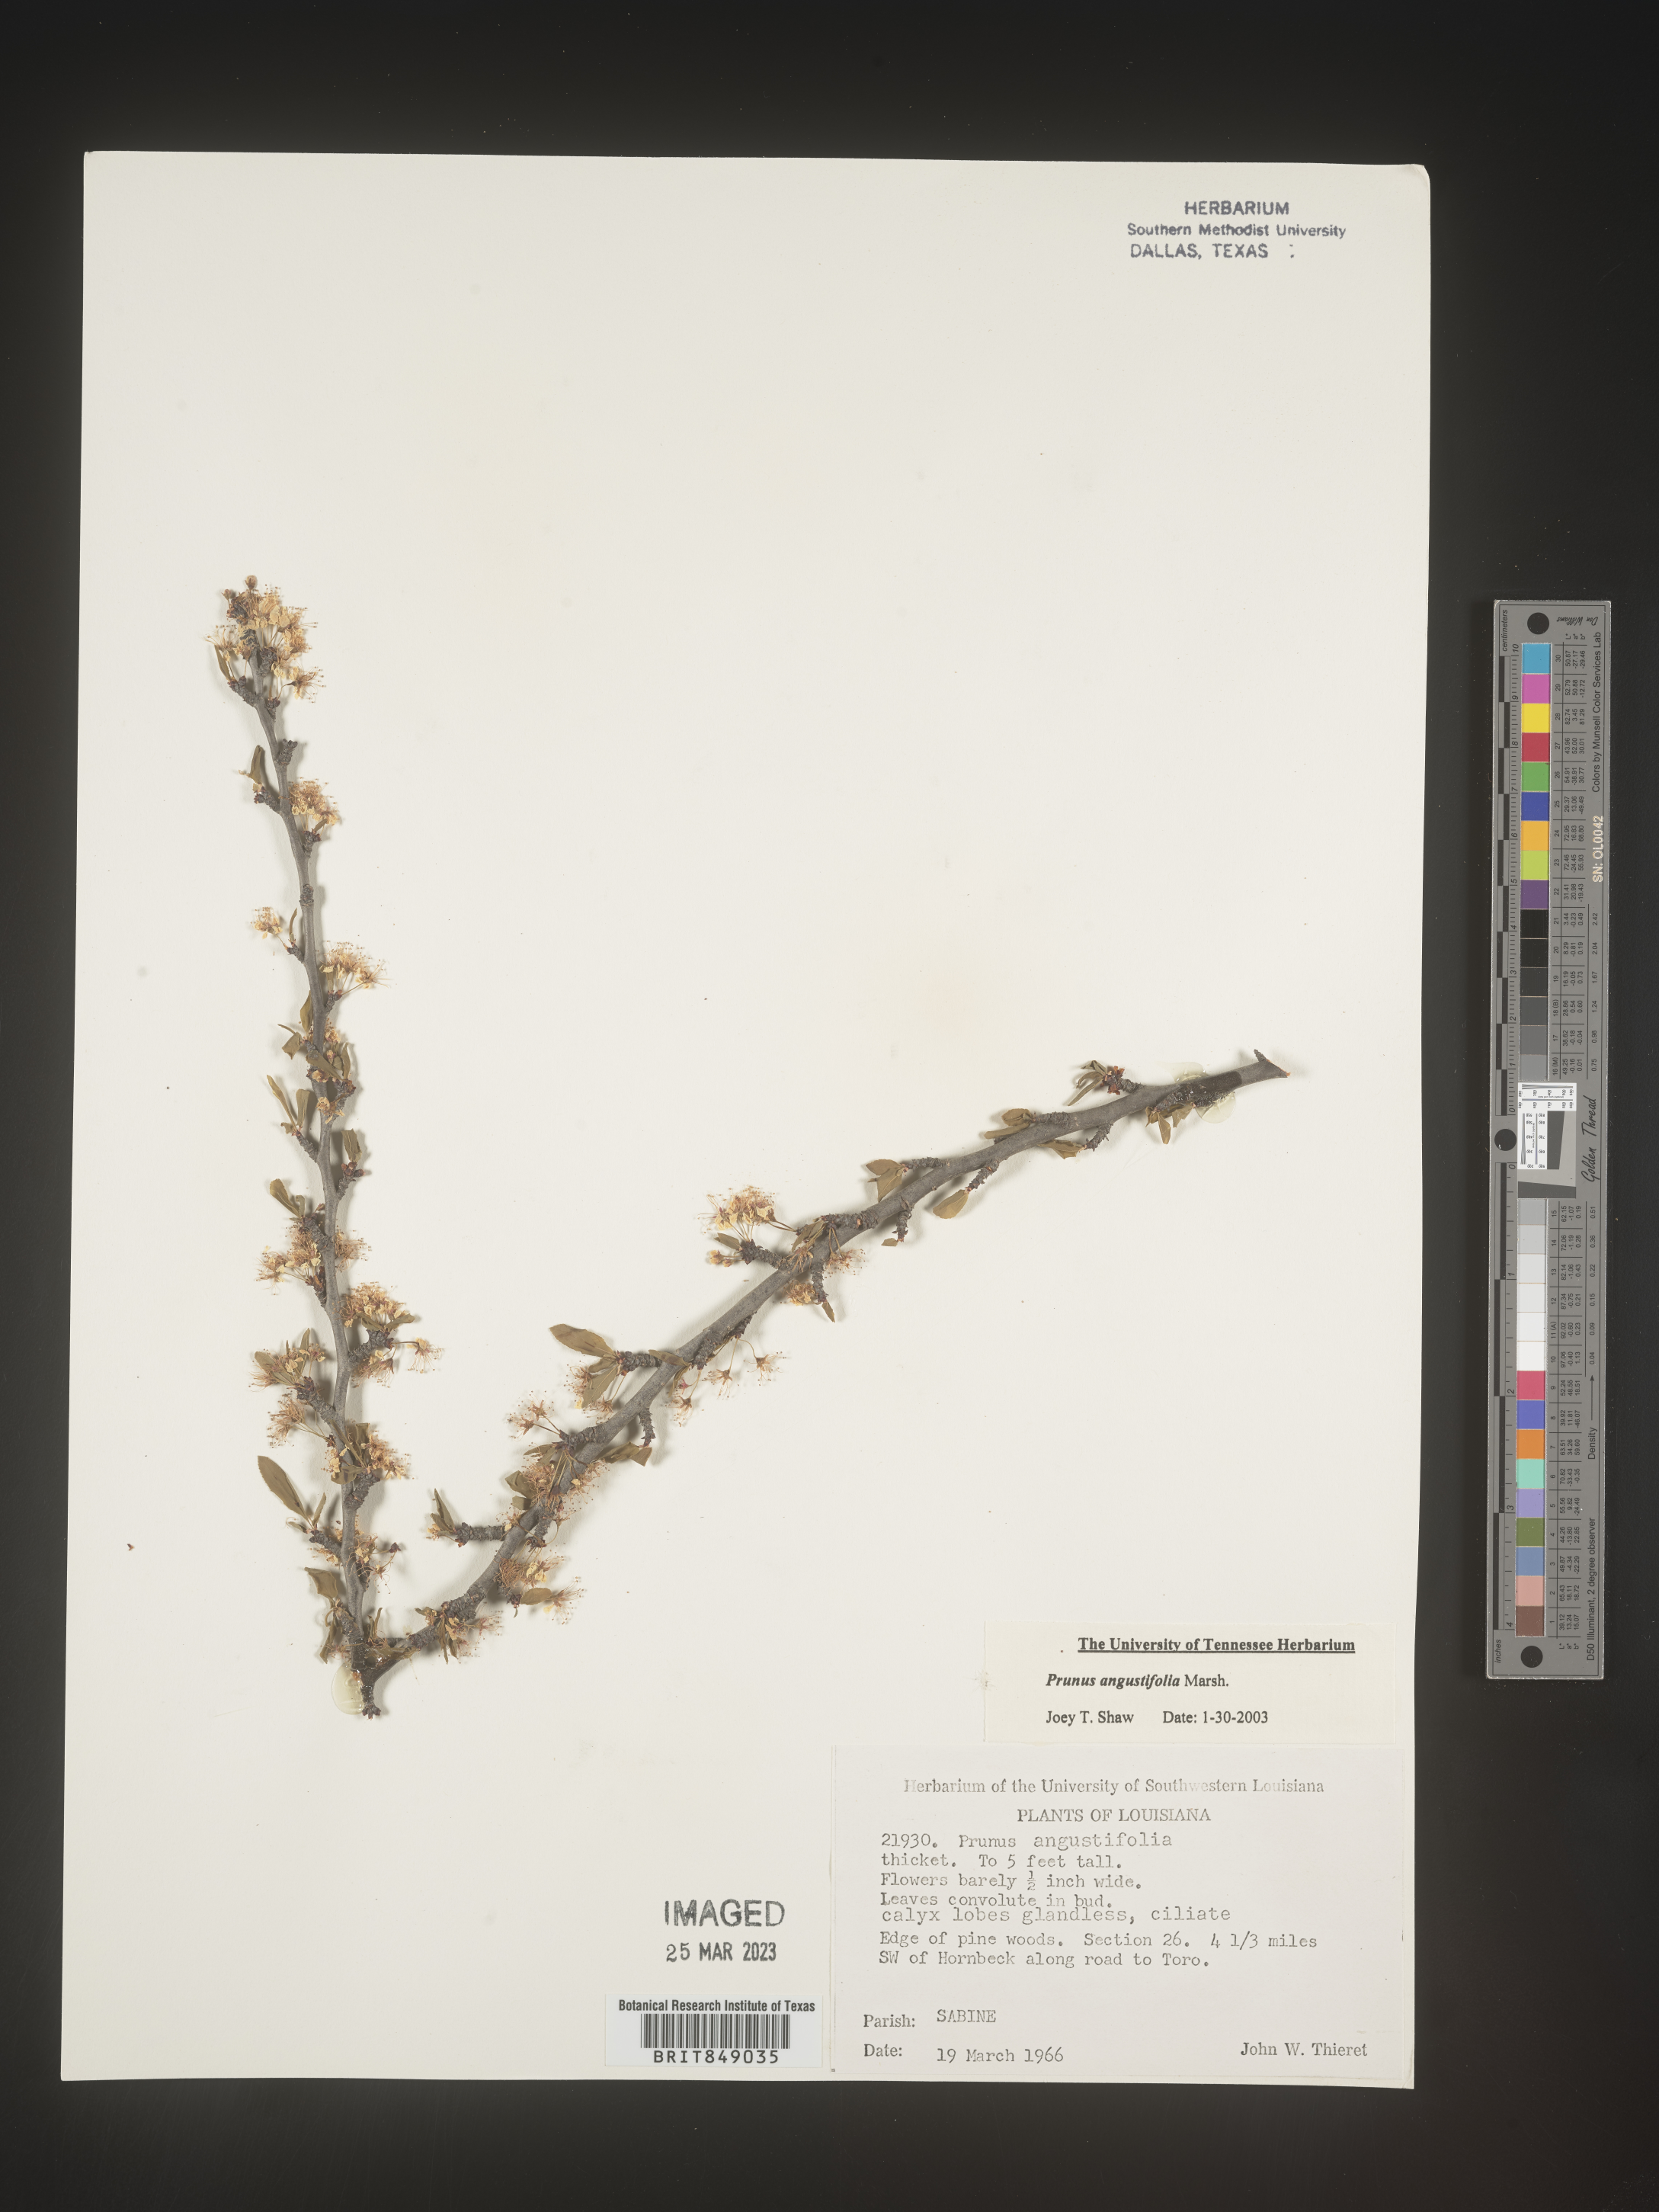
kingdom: Plantae
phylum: Tracheophyta
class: Magnoliopsida
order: Rosales
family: Rosaceae
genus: Prunus
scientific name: Prunus angustifolia
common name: Cherokee plum
